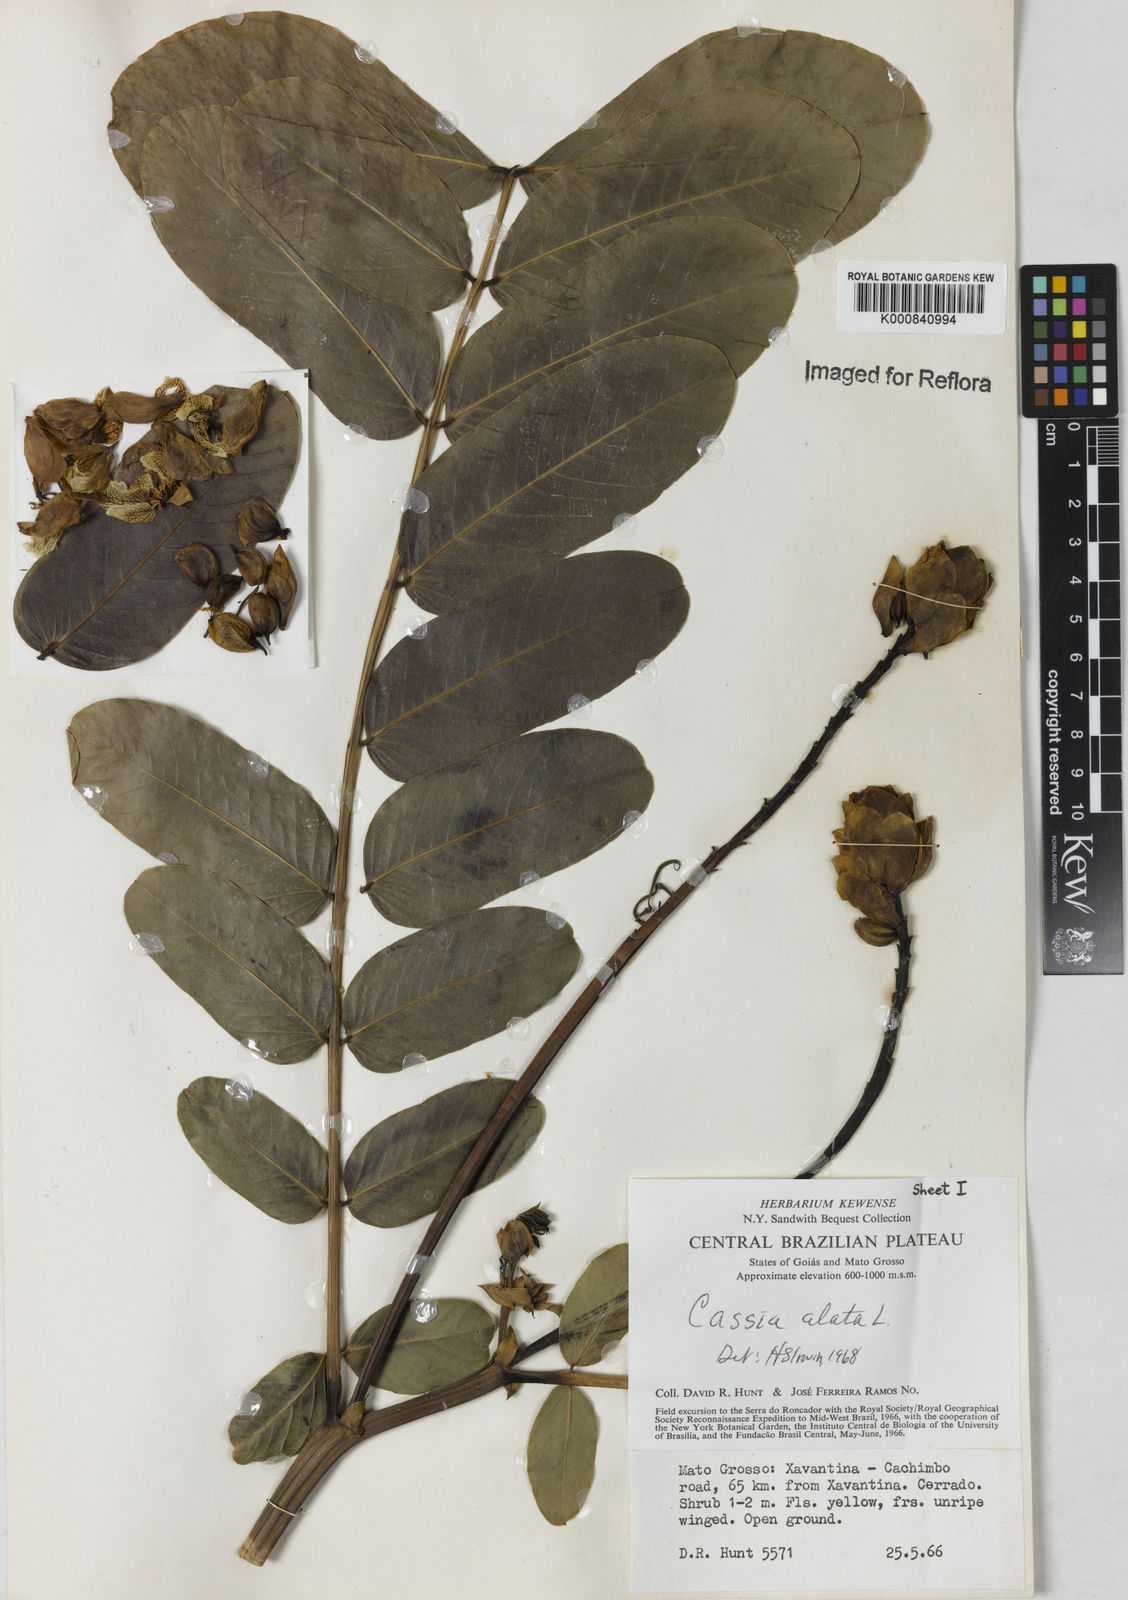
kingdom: Plantae
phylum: Tracheophyta
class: Magnoliopsida
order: Fabales
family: Fabaceae
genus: Senna
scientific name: Senna alata
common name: Emperor's candlesticks
